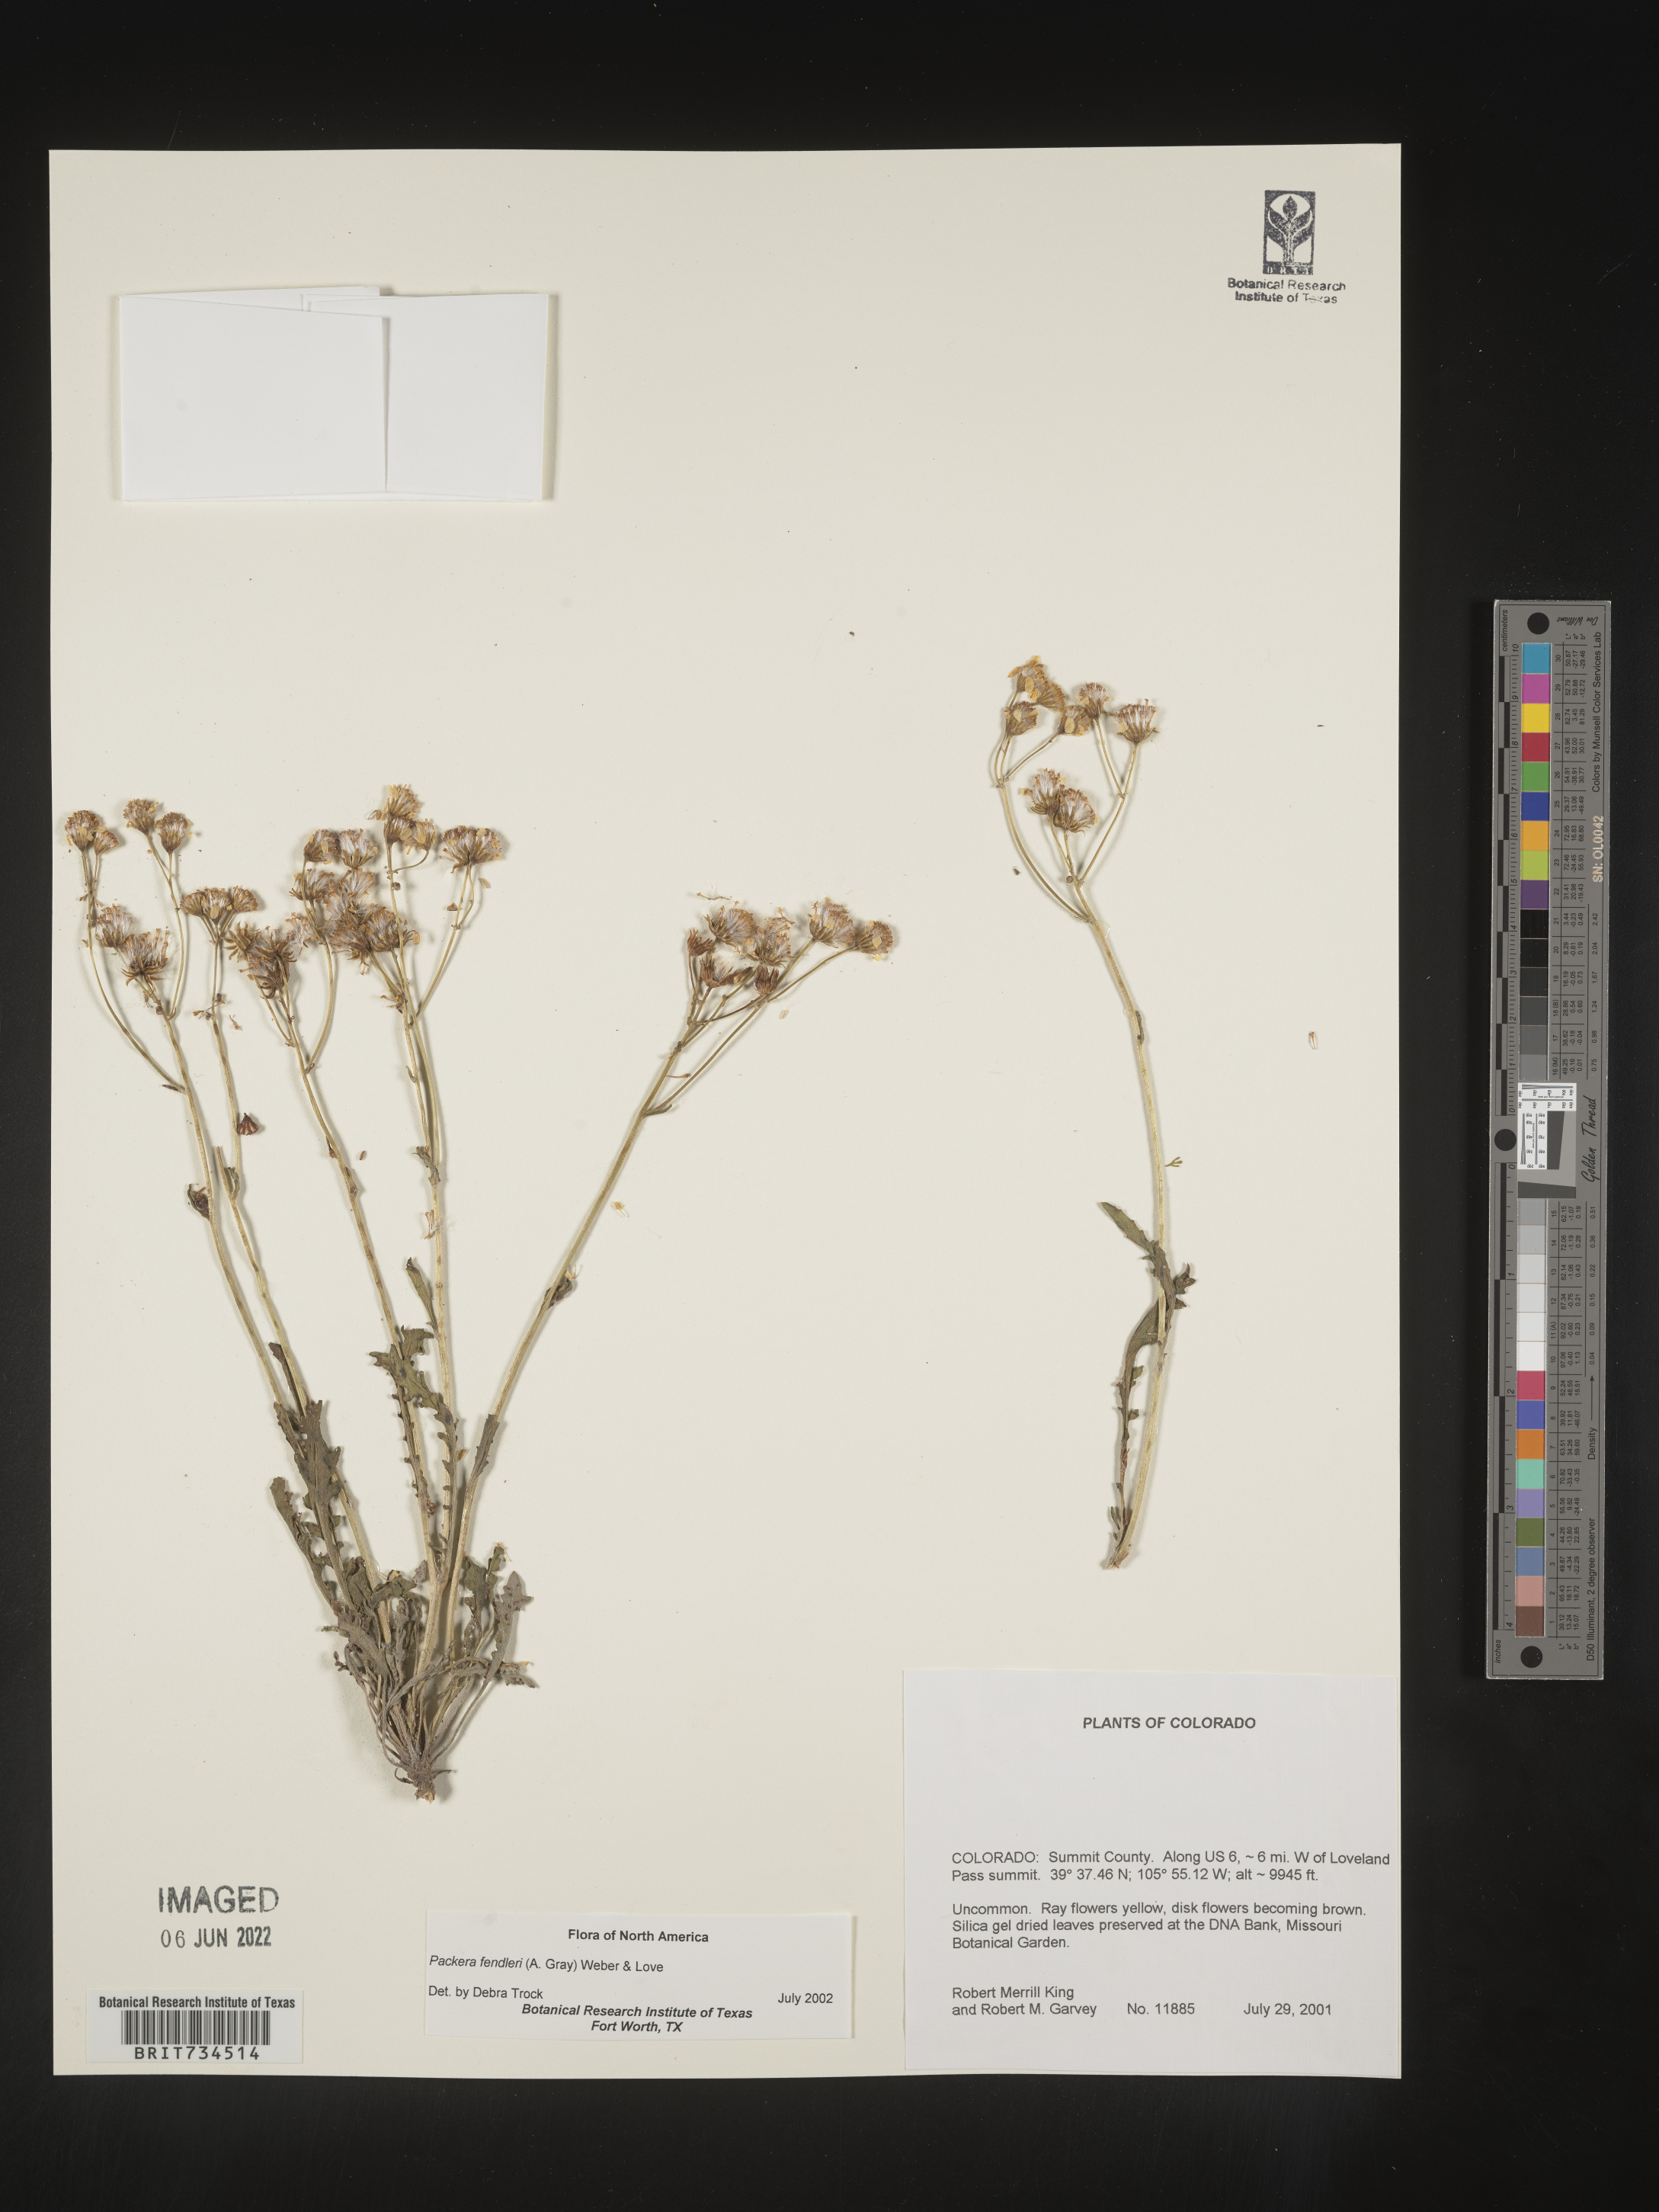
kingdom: Plantae
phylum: Tracheophyta
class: Magnoliopsida
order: Asterales
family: Asteraceae
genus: Packera
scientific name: Packera fendleri
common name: Notch-leaf butterweed
